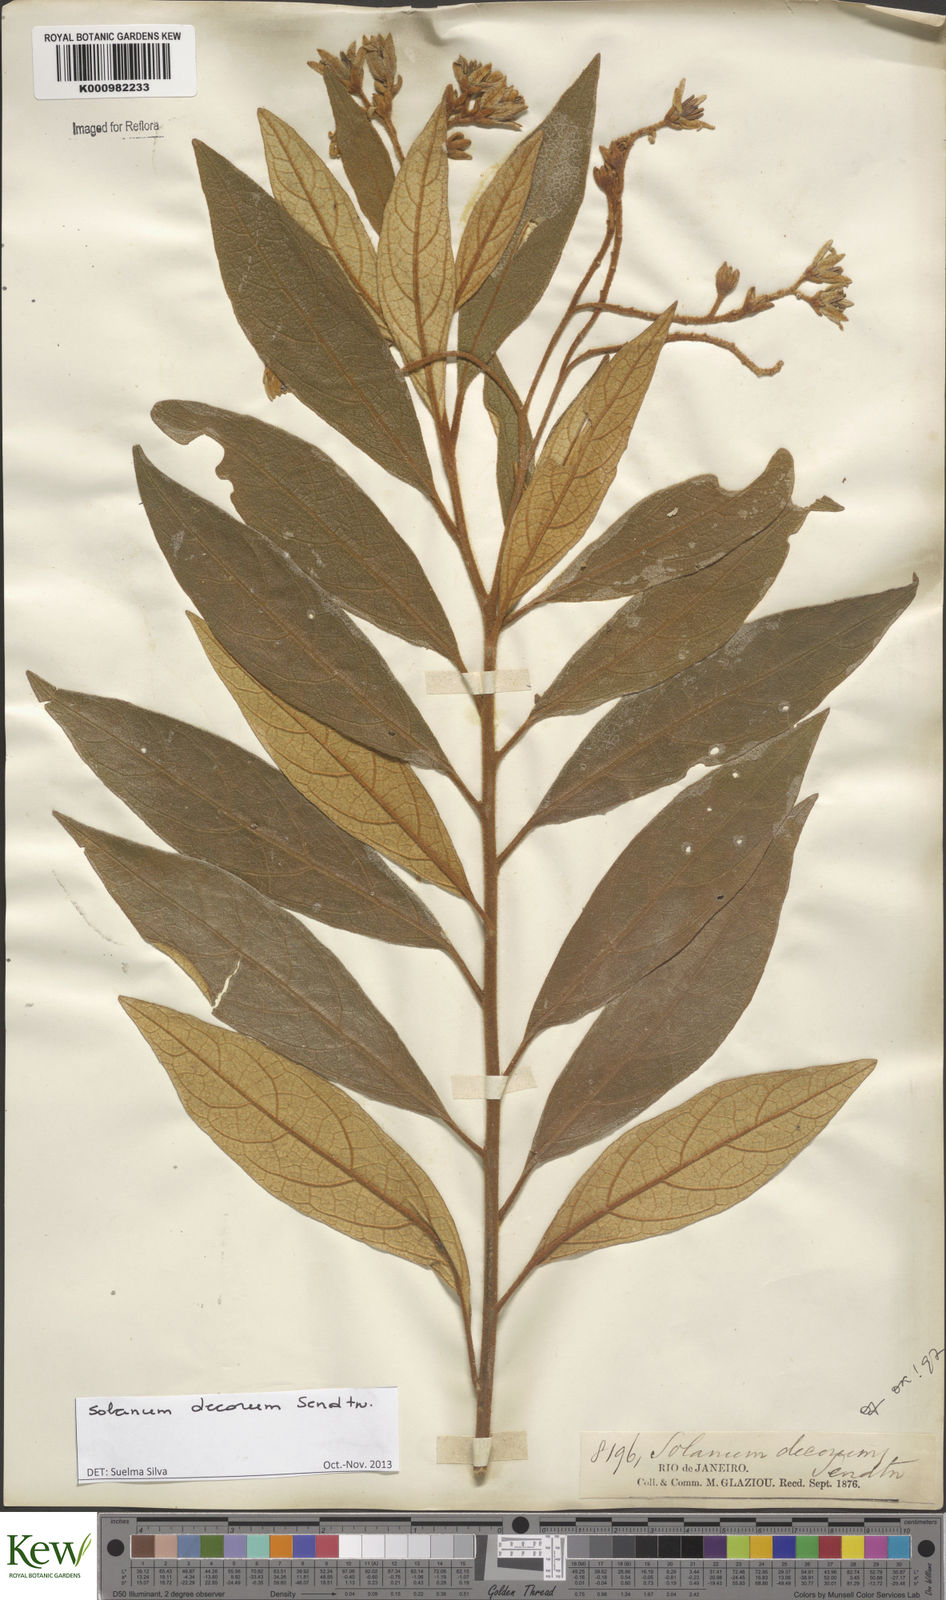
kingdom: Plantae
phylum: Tracheophyta
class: Magnoliopsida
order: Solanales
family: Solanaceae
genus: Solanum
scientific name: Solanum decorum
